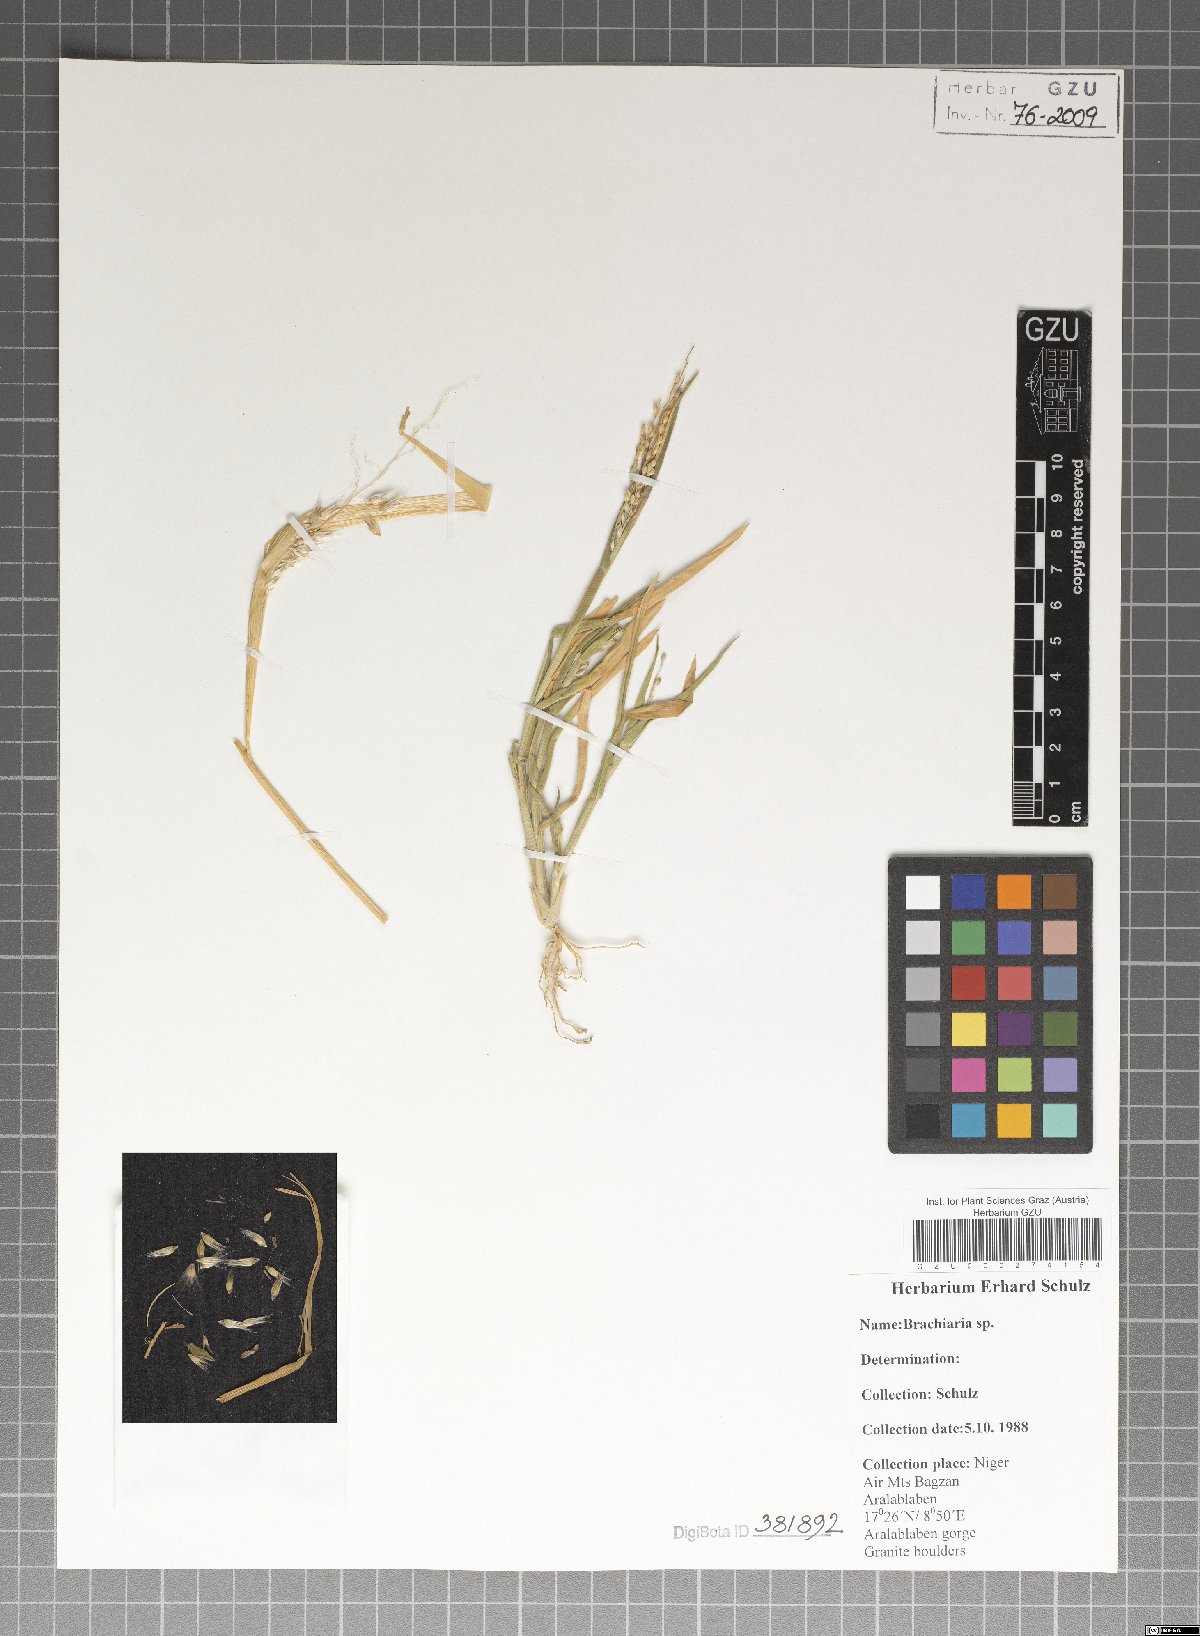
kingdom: Plantae
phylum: Tracheophyta
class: Liliopsida
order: Poales
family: Poaceae
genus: Brachiaria
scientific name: Brachiaria
